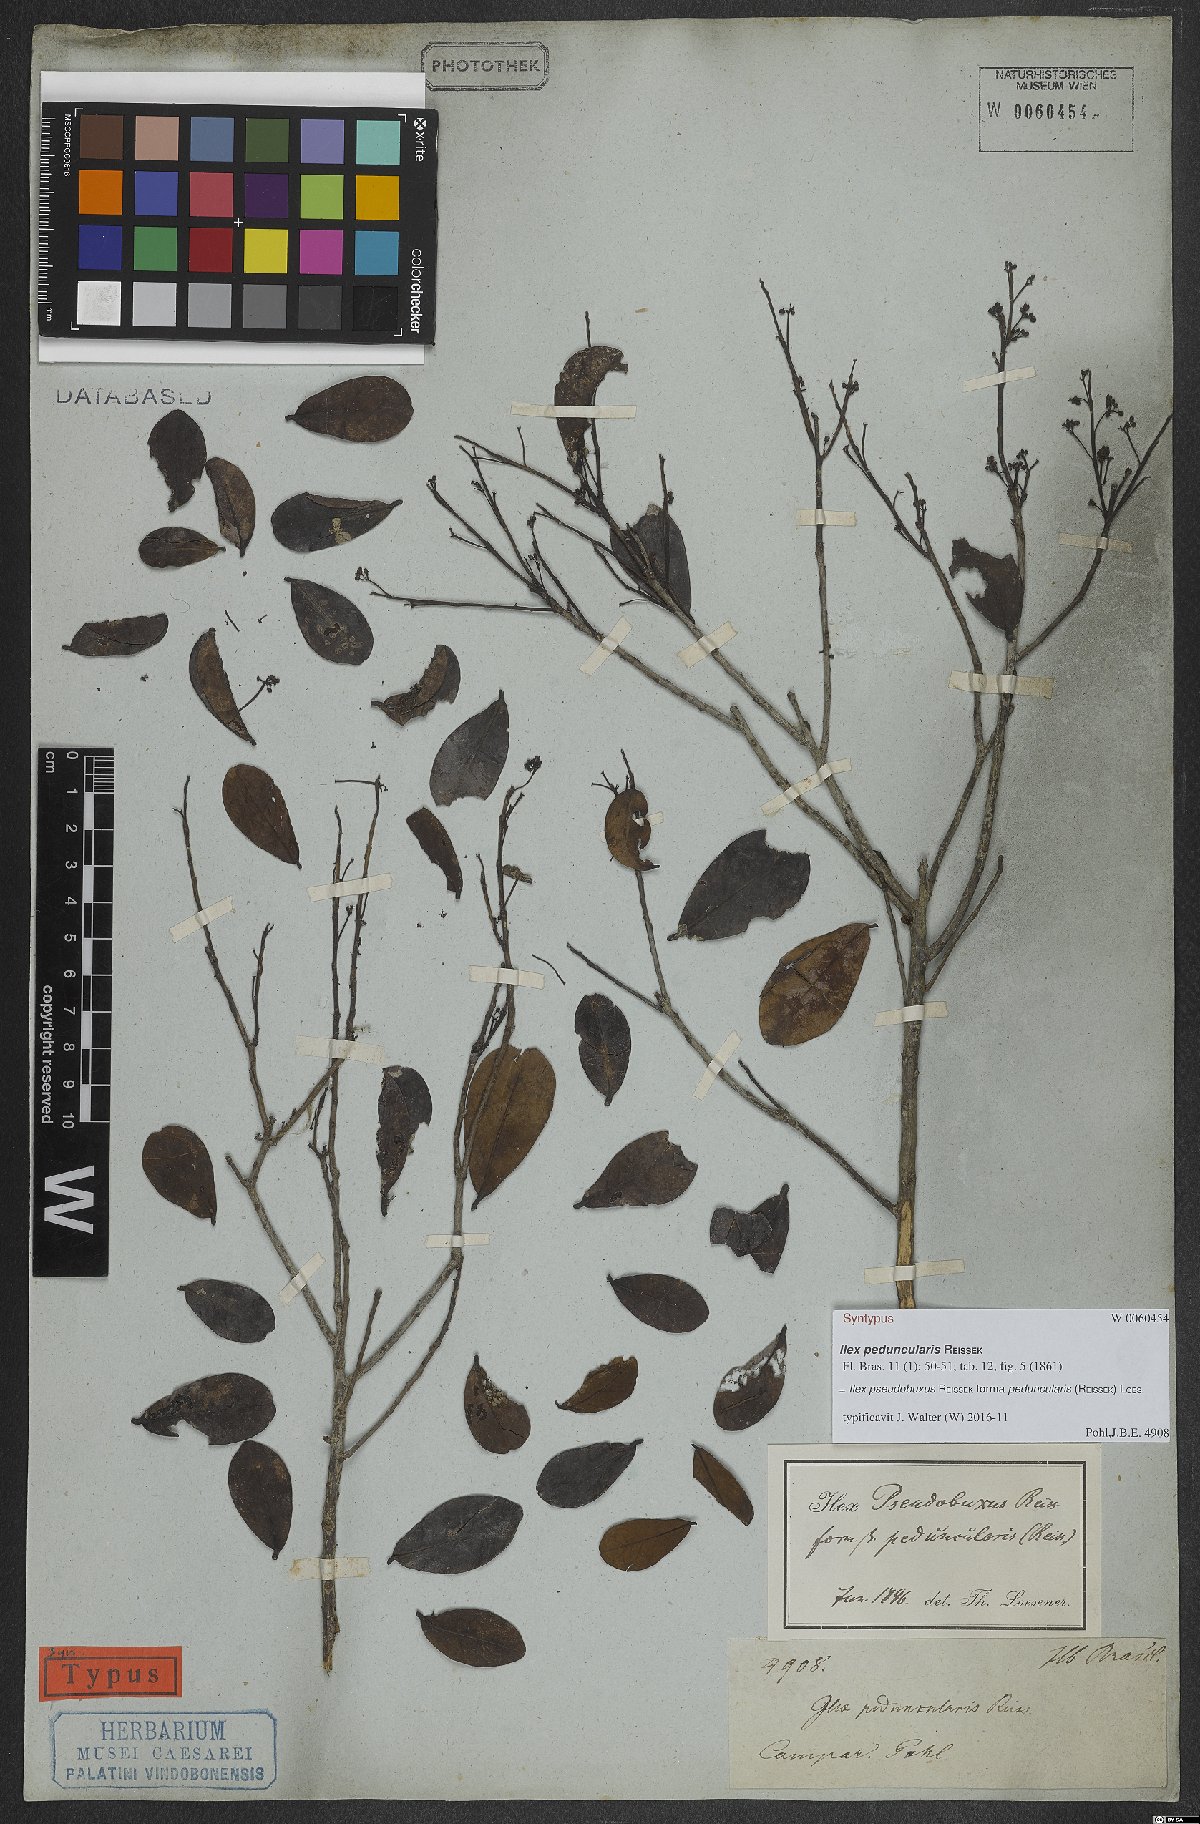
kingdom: Plantae
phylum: Tracheophyta
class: Magnoliopsida
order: Aquifoliales
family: Aquifoliaceae
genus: Ilex
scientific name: Ilex pseudobuxus
